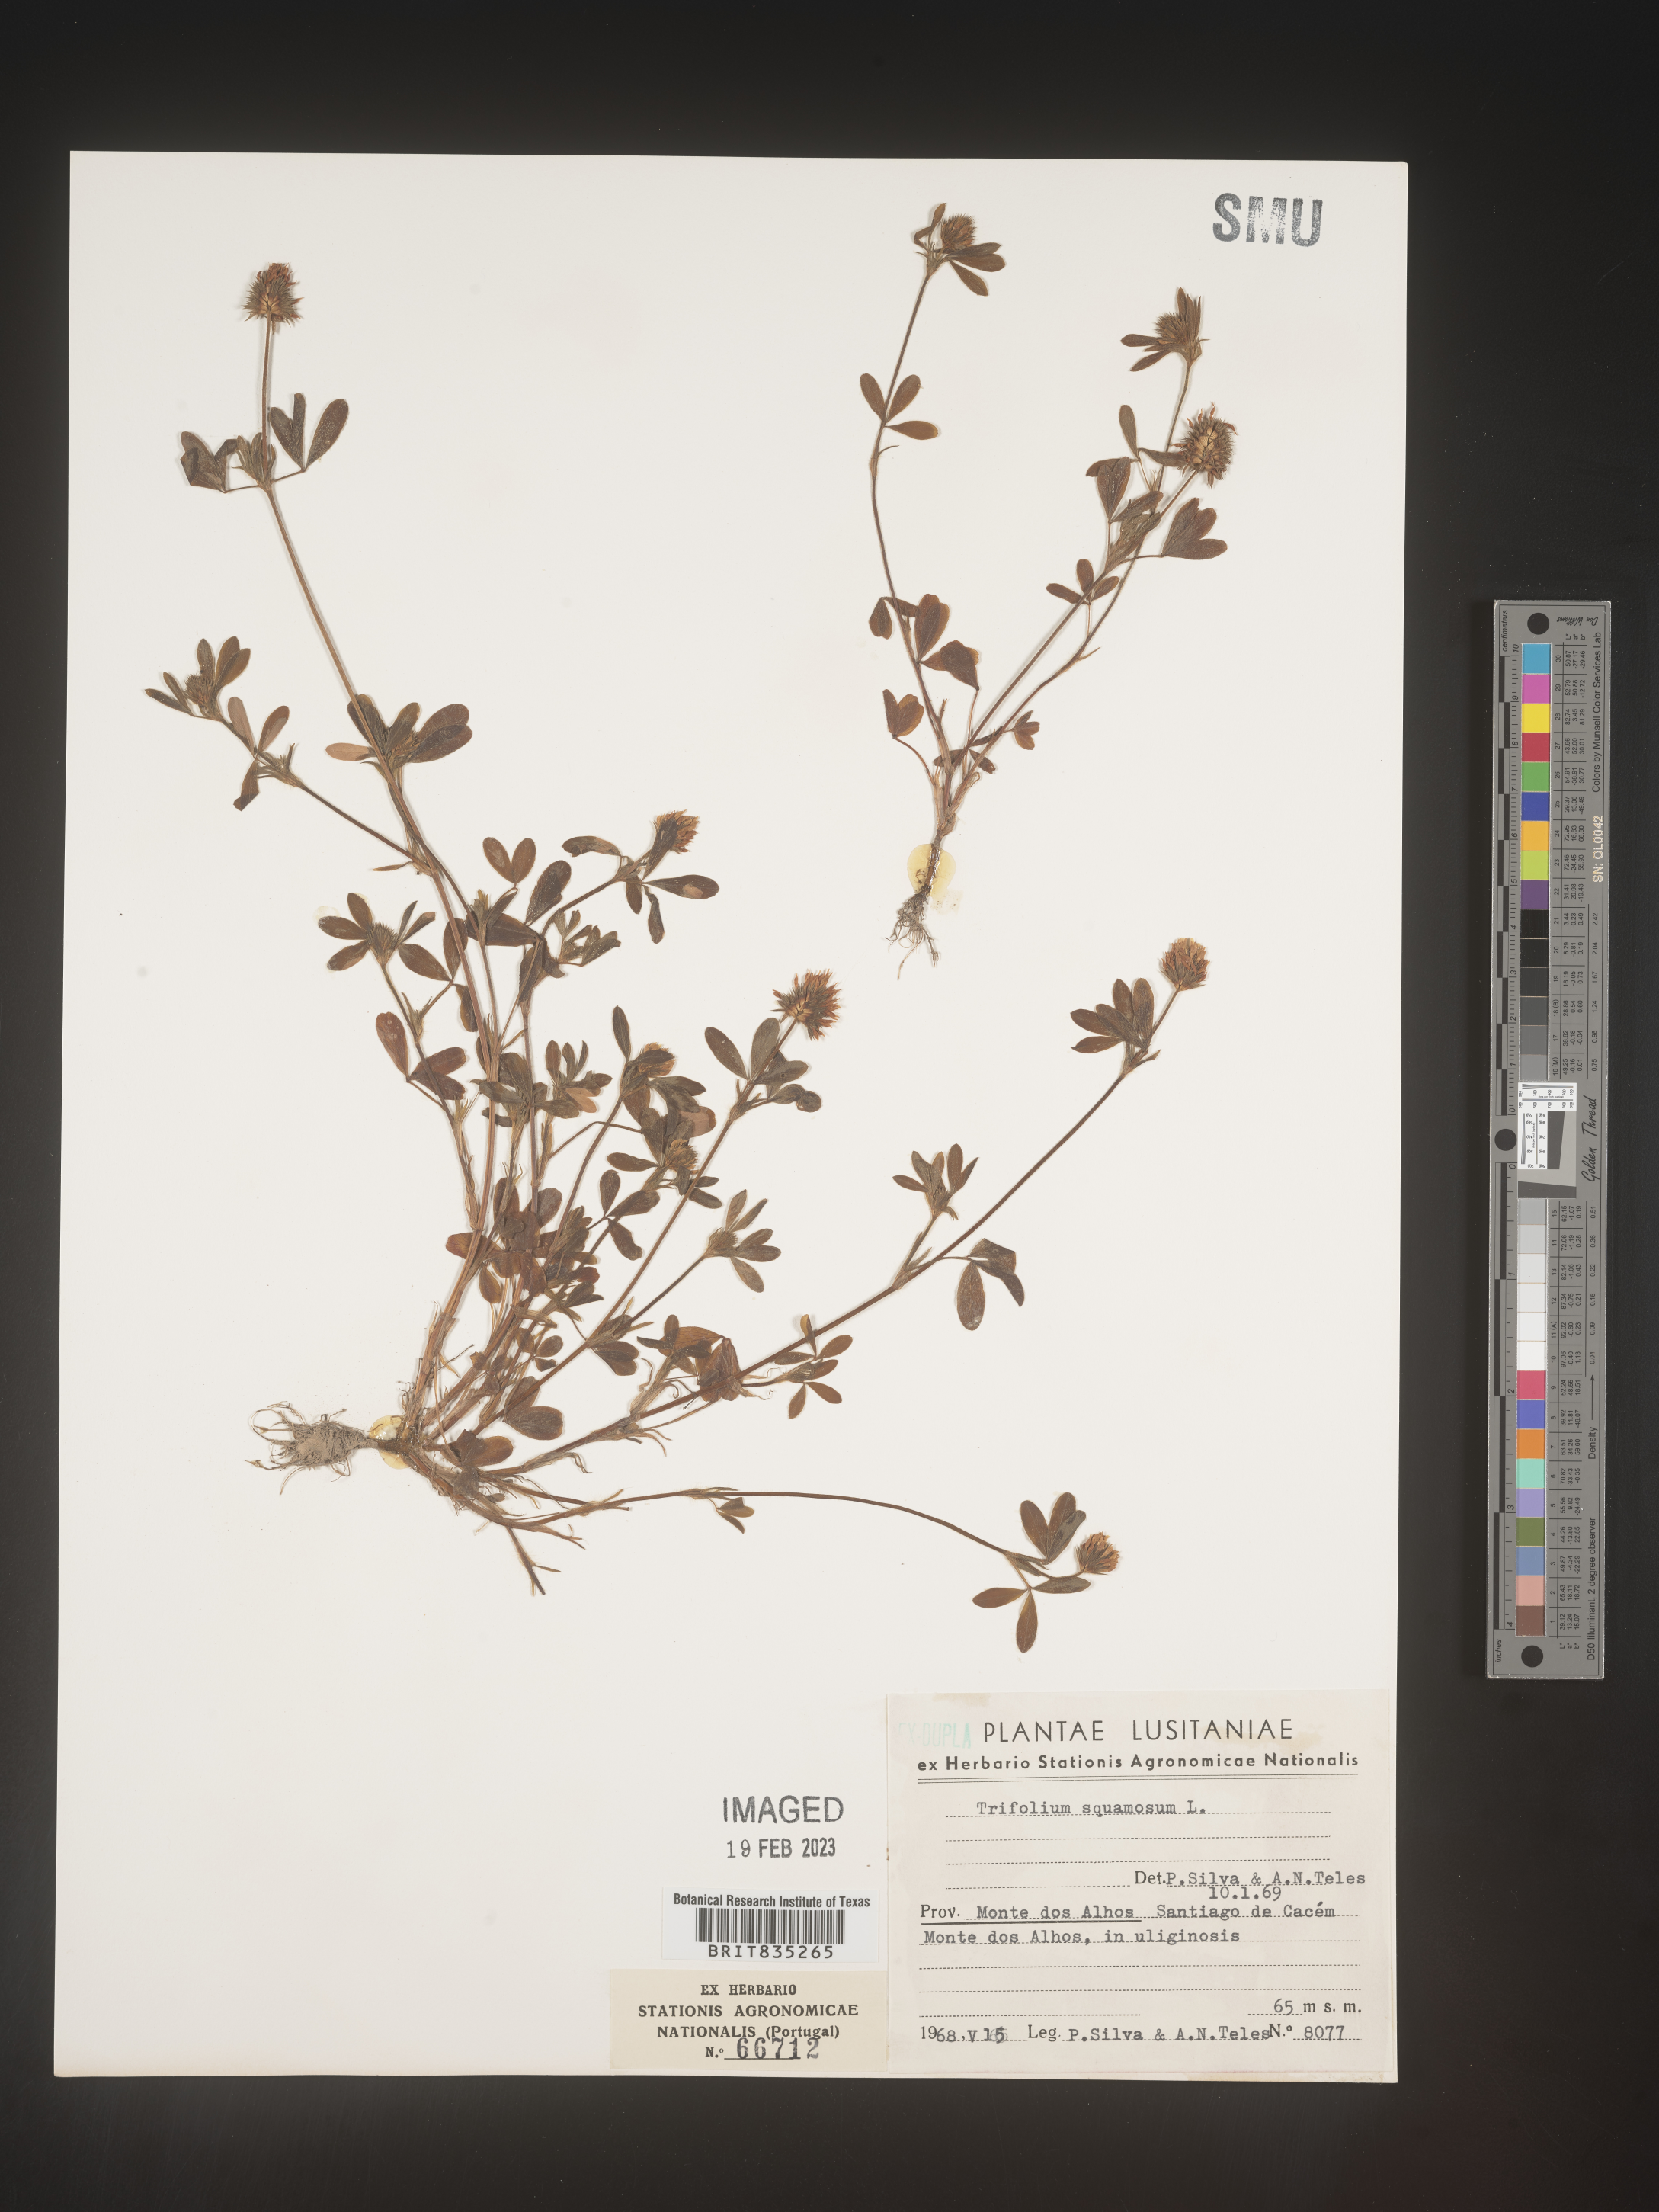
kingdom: Plantae
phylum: Tracheophyta
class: Magnoliopsida
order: Fabales
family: Fabaceae
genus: Trifolium
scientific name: Trifolium
